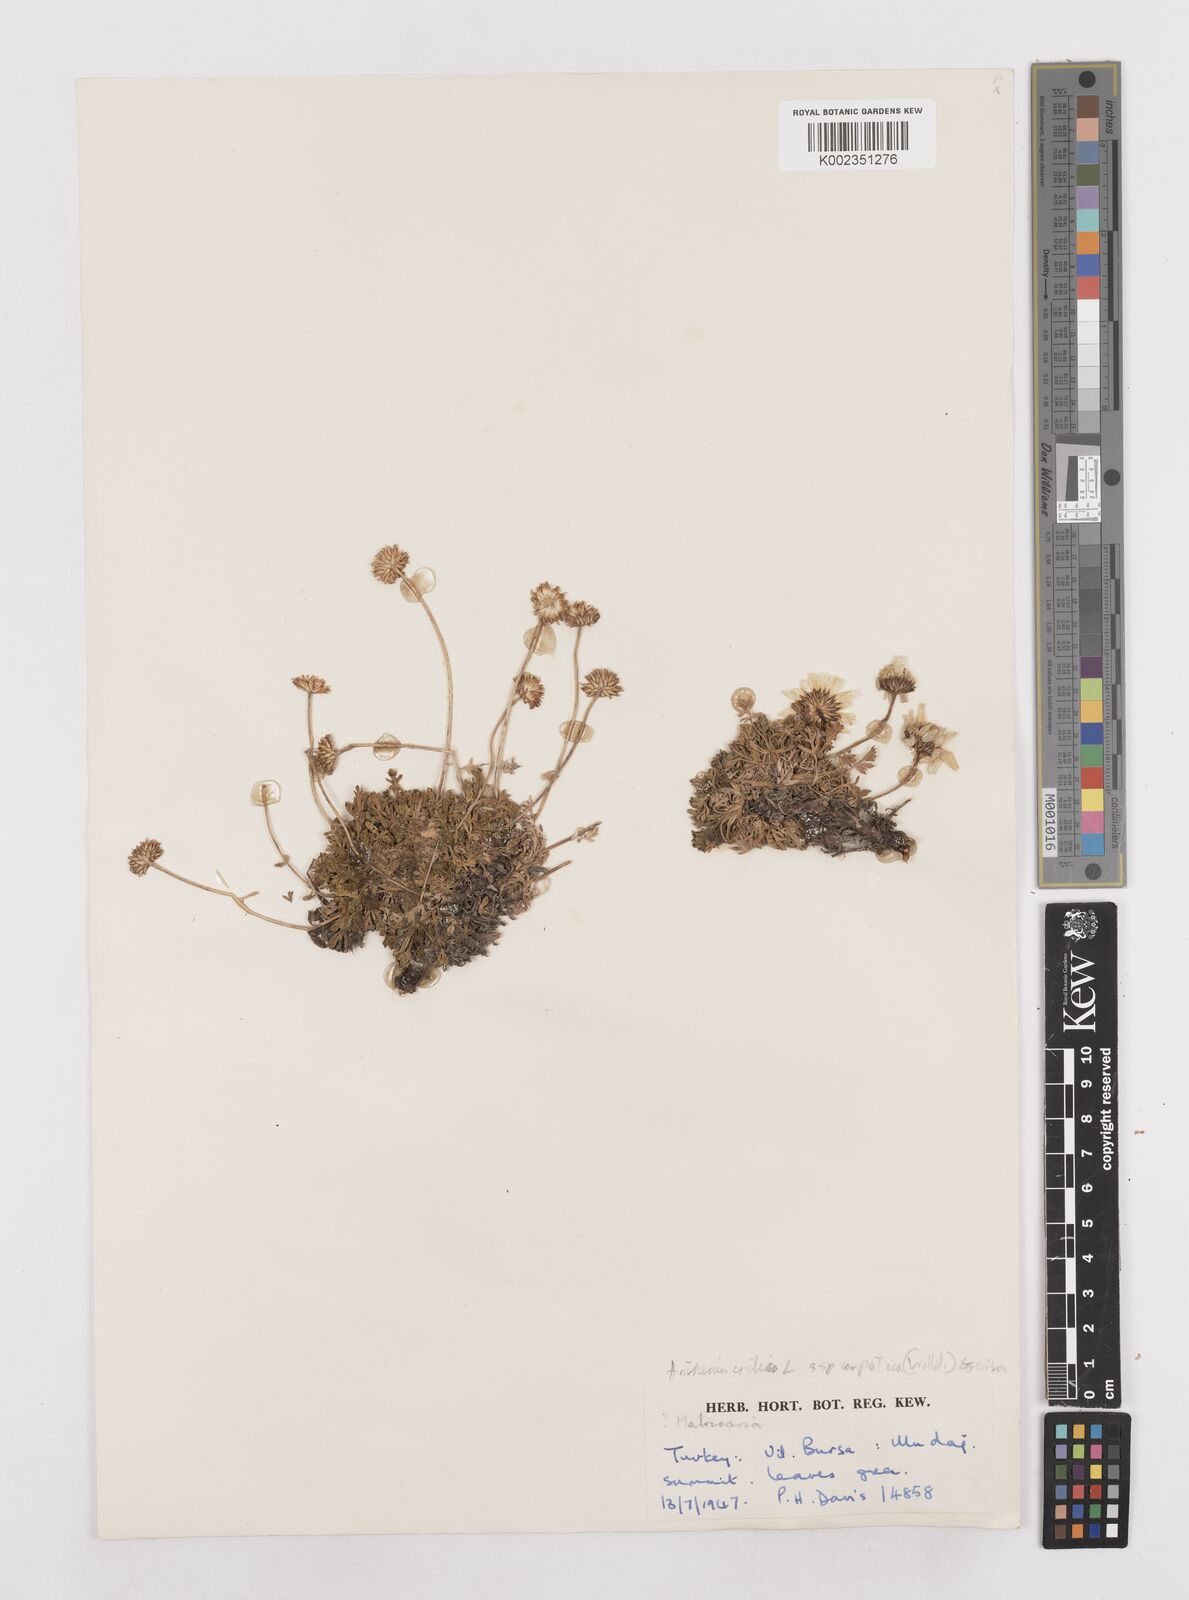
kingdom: Plantae
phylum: Tracheophyta
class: Magnoliopsida
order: Asterales
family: Asteraceae
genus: Anthemis
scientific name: Anthemis cretica
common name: Mountain dog-daisy
